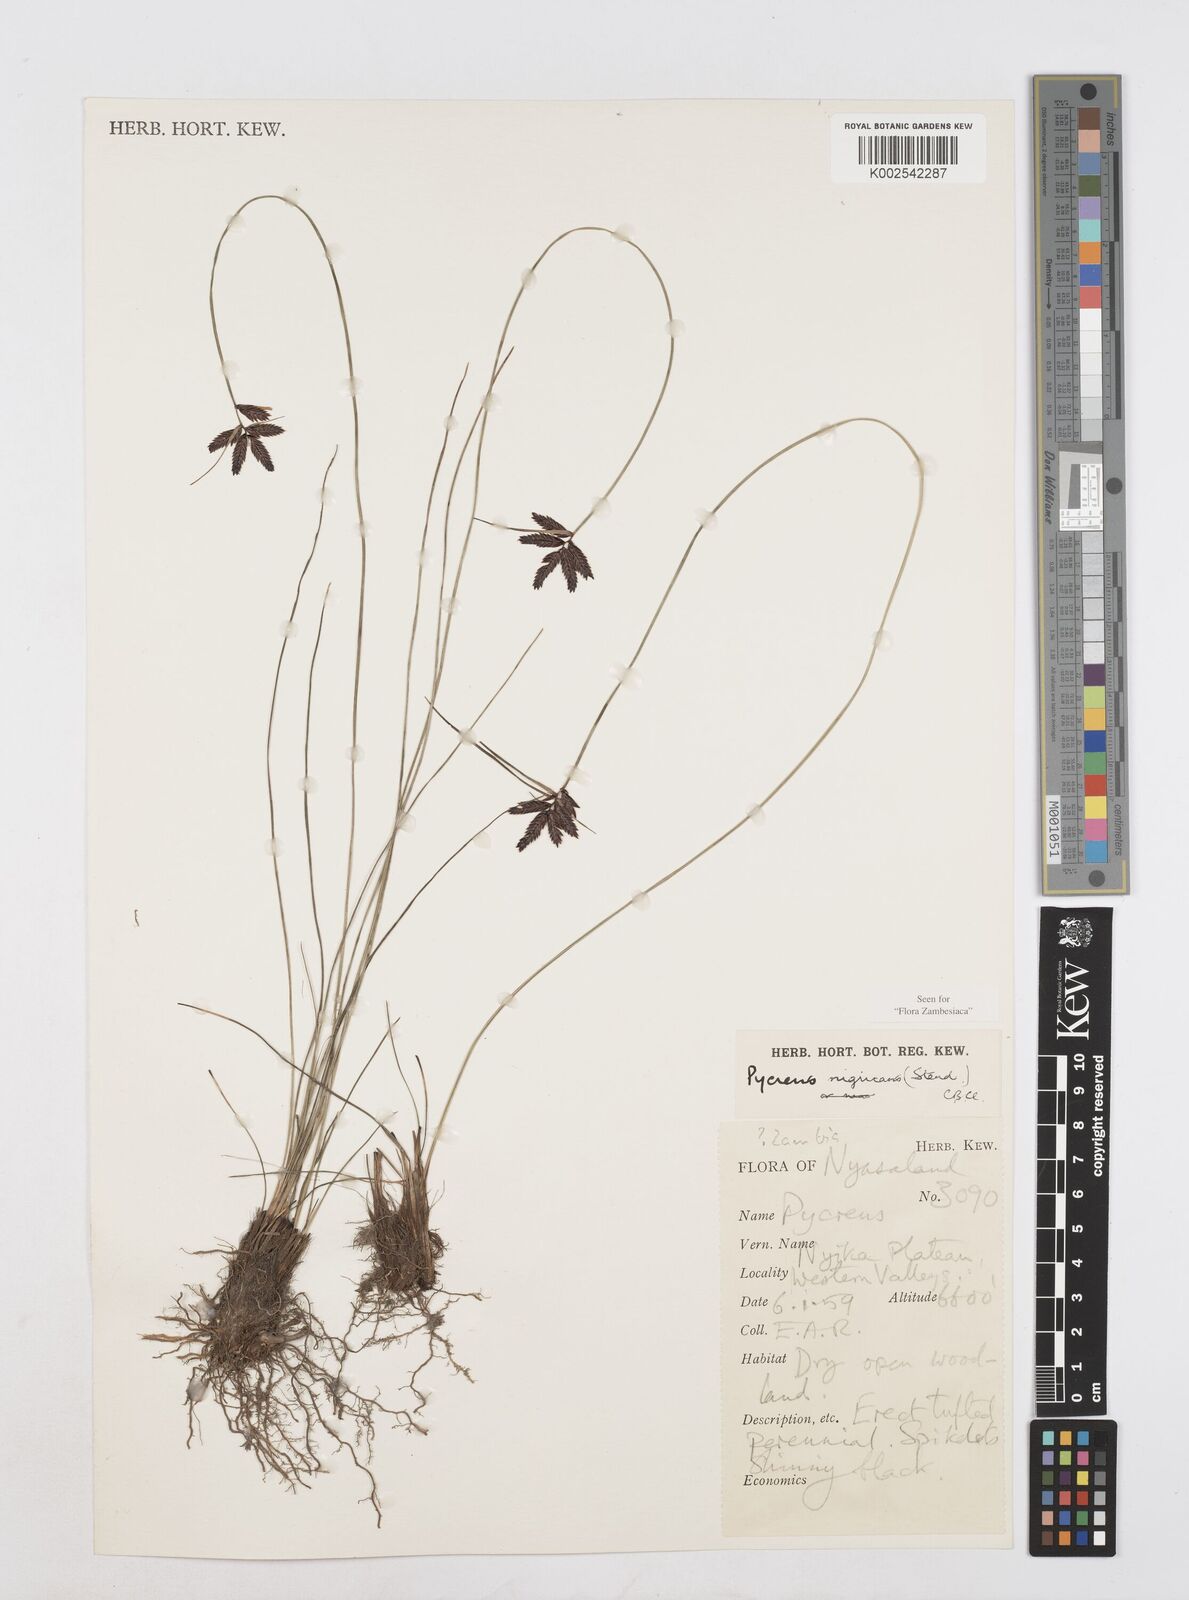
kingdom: Plantae
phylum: Tracheophyta
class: Liliopsida
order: Poales
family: Cyperaceae
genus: Cyperus
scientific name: Cyperus nigricans
